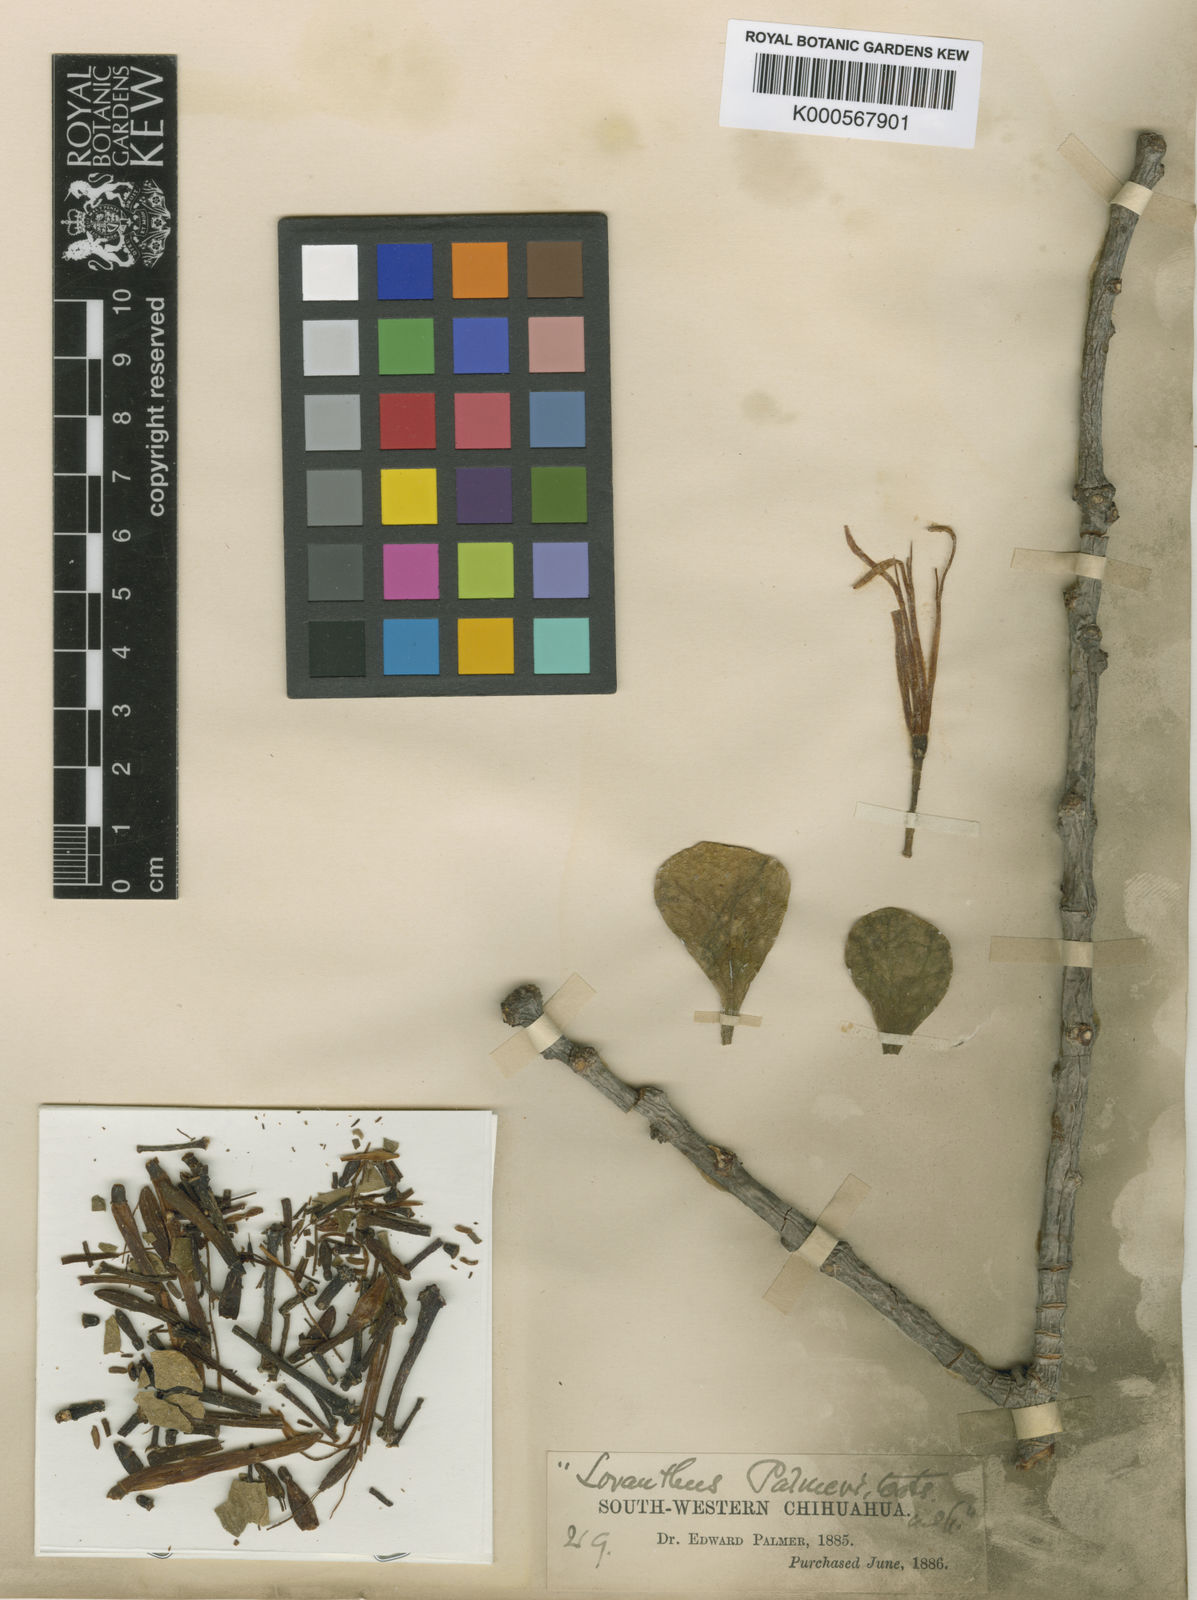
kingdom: Plantae
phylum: Tracheophyta
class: Magnoliopsida
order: Santalales
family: Loranthaceae
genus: Notanthera
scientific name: Notanthera
